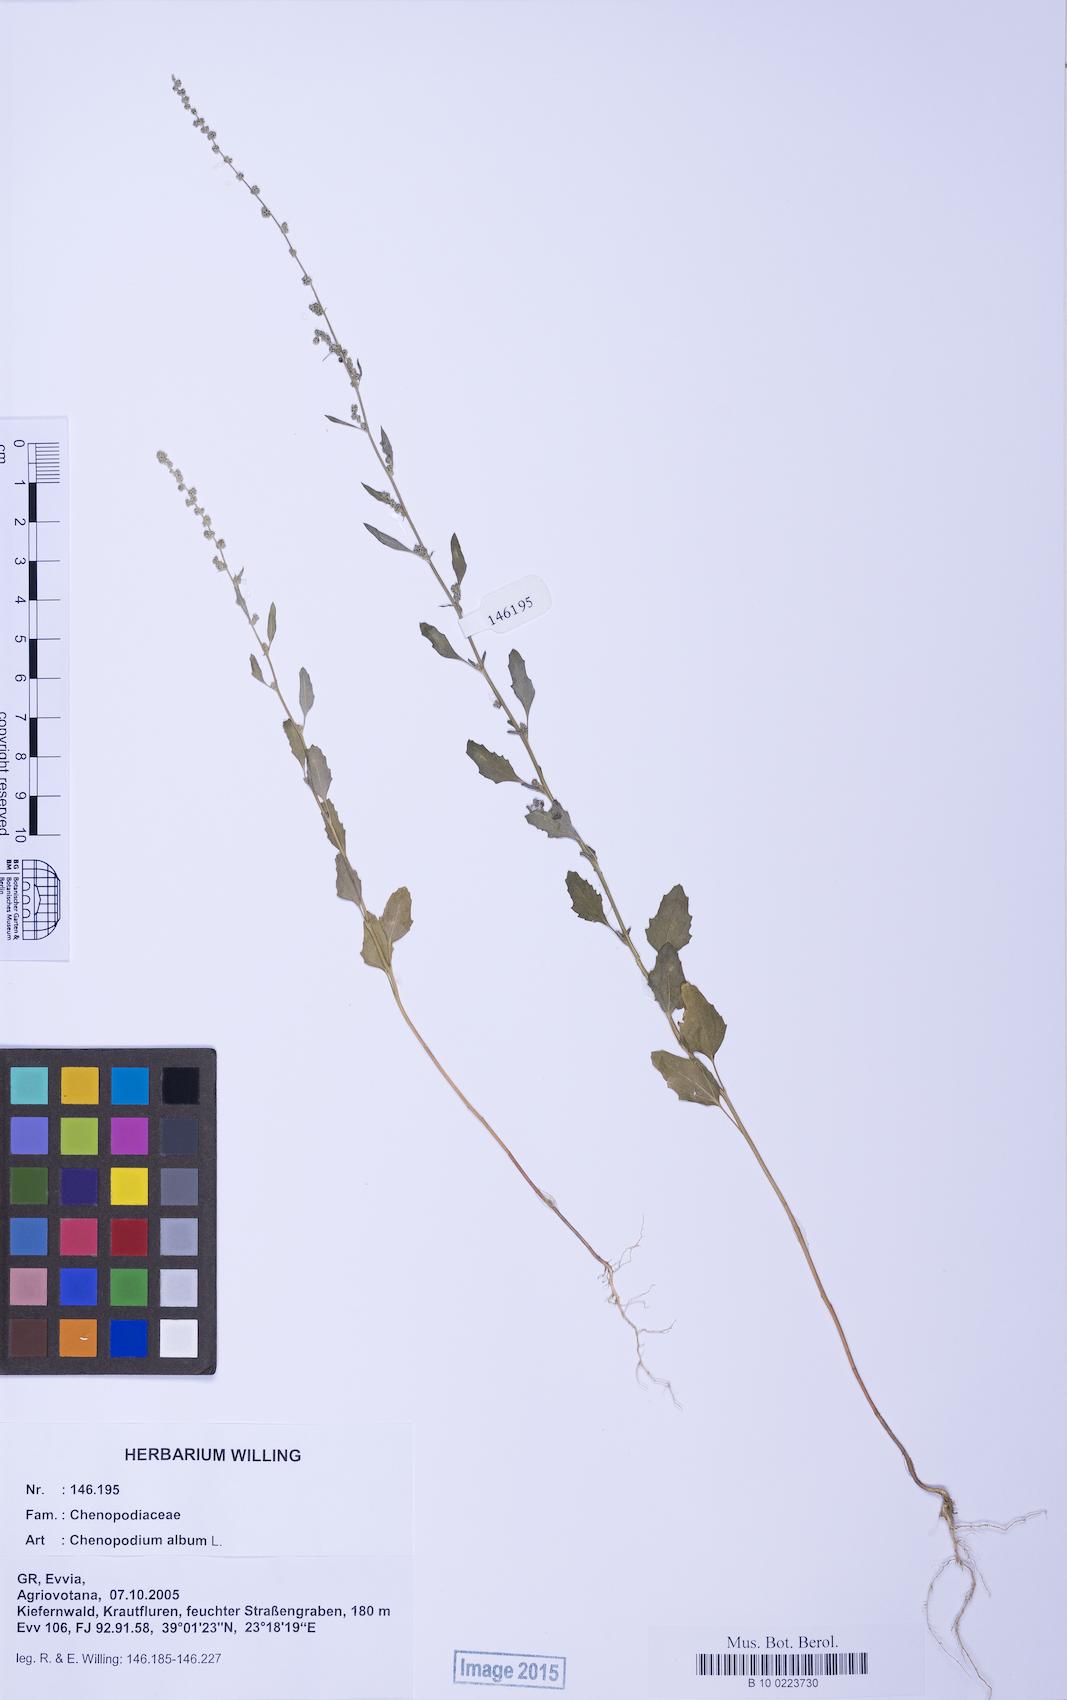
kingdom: Plantae
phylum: Tracheophyta
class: Magnoliopsida
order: Caryophyllales
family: Amaranthaceae
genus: Chenopodium
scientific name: Chenopodium album
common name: Fat-hen
